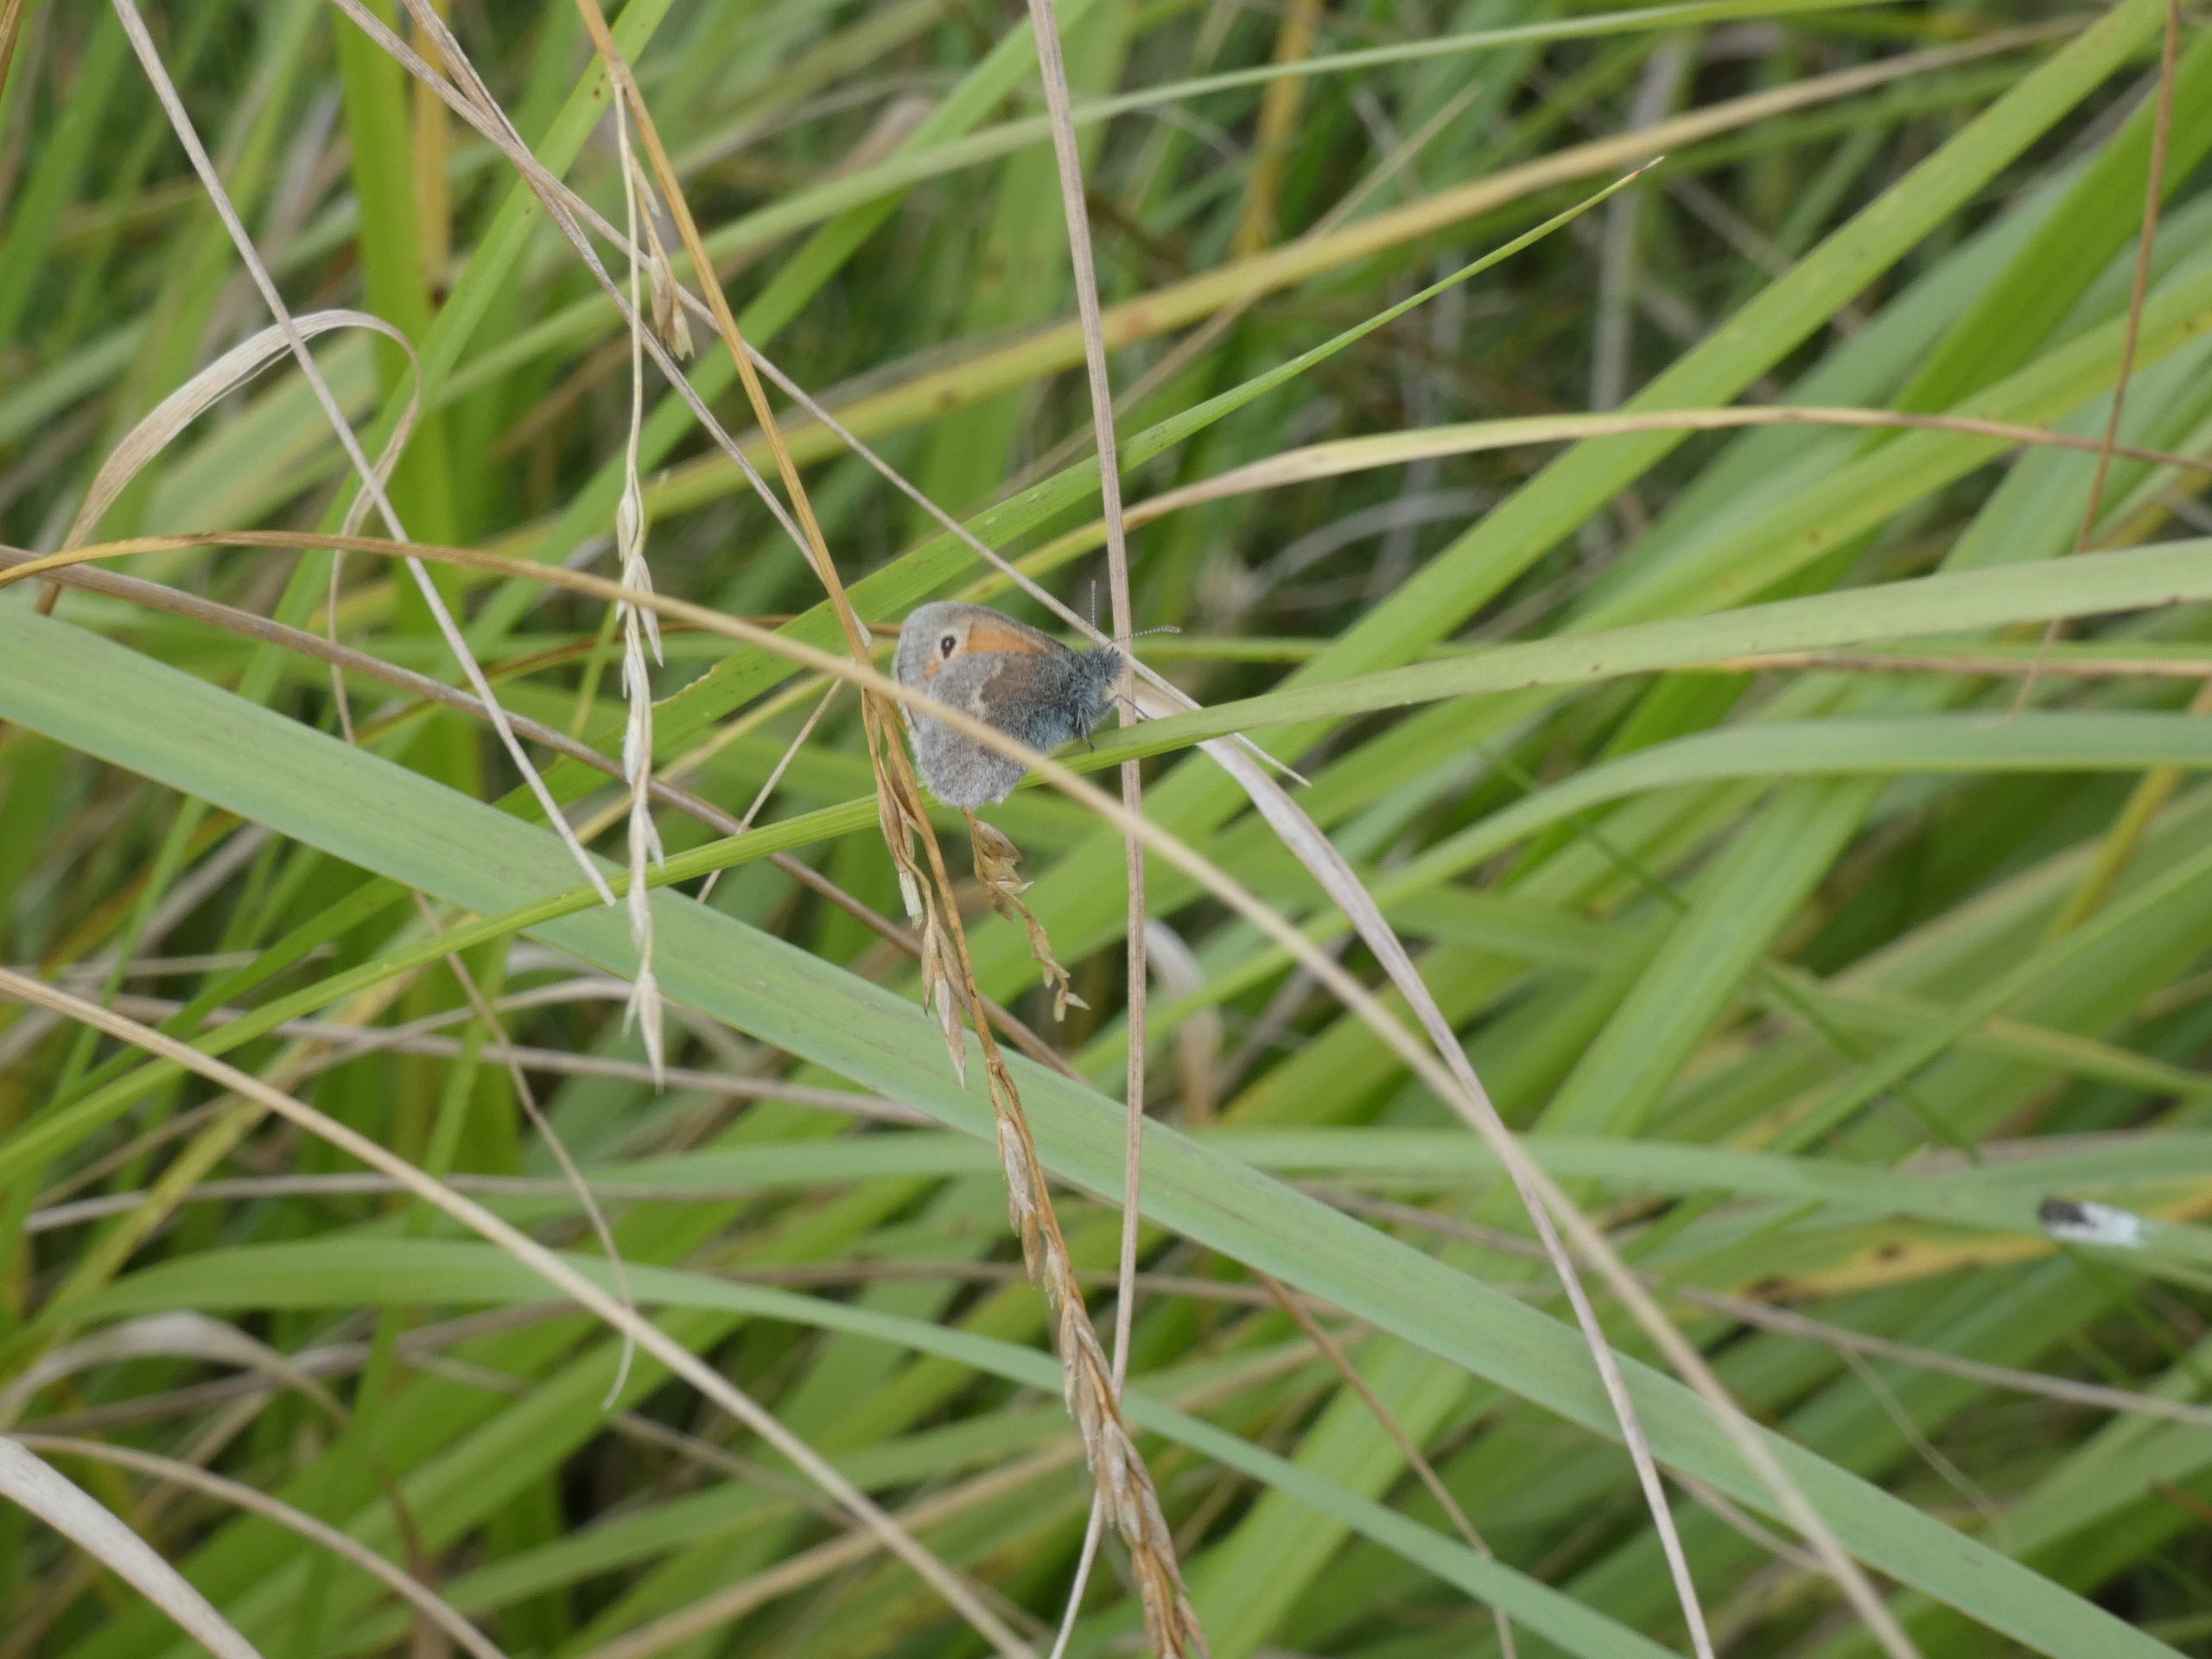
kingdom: Animalia
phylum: Arthropoda
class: Insecta
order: Lepidoptera
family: Nymphalidae
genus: Coenonympha
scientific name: Coenonympha pamphilus
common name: Okkergul randøje
